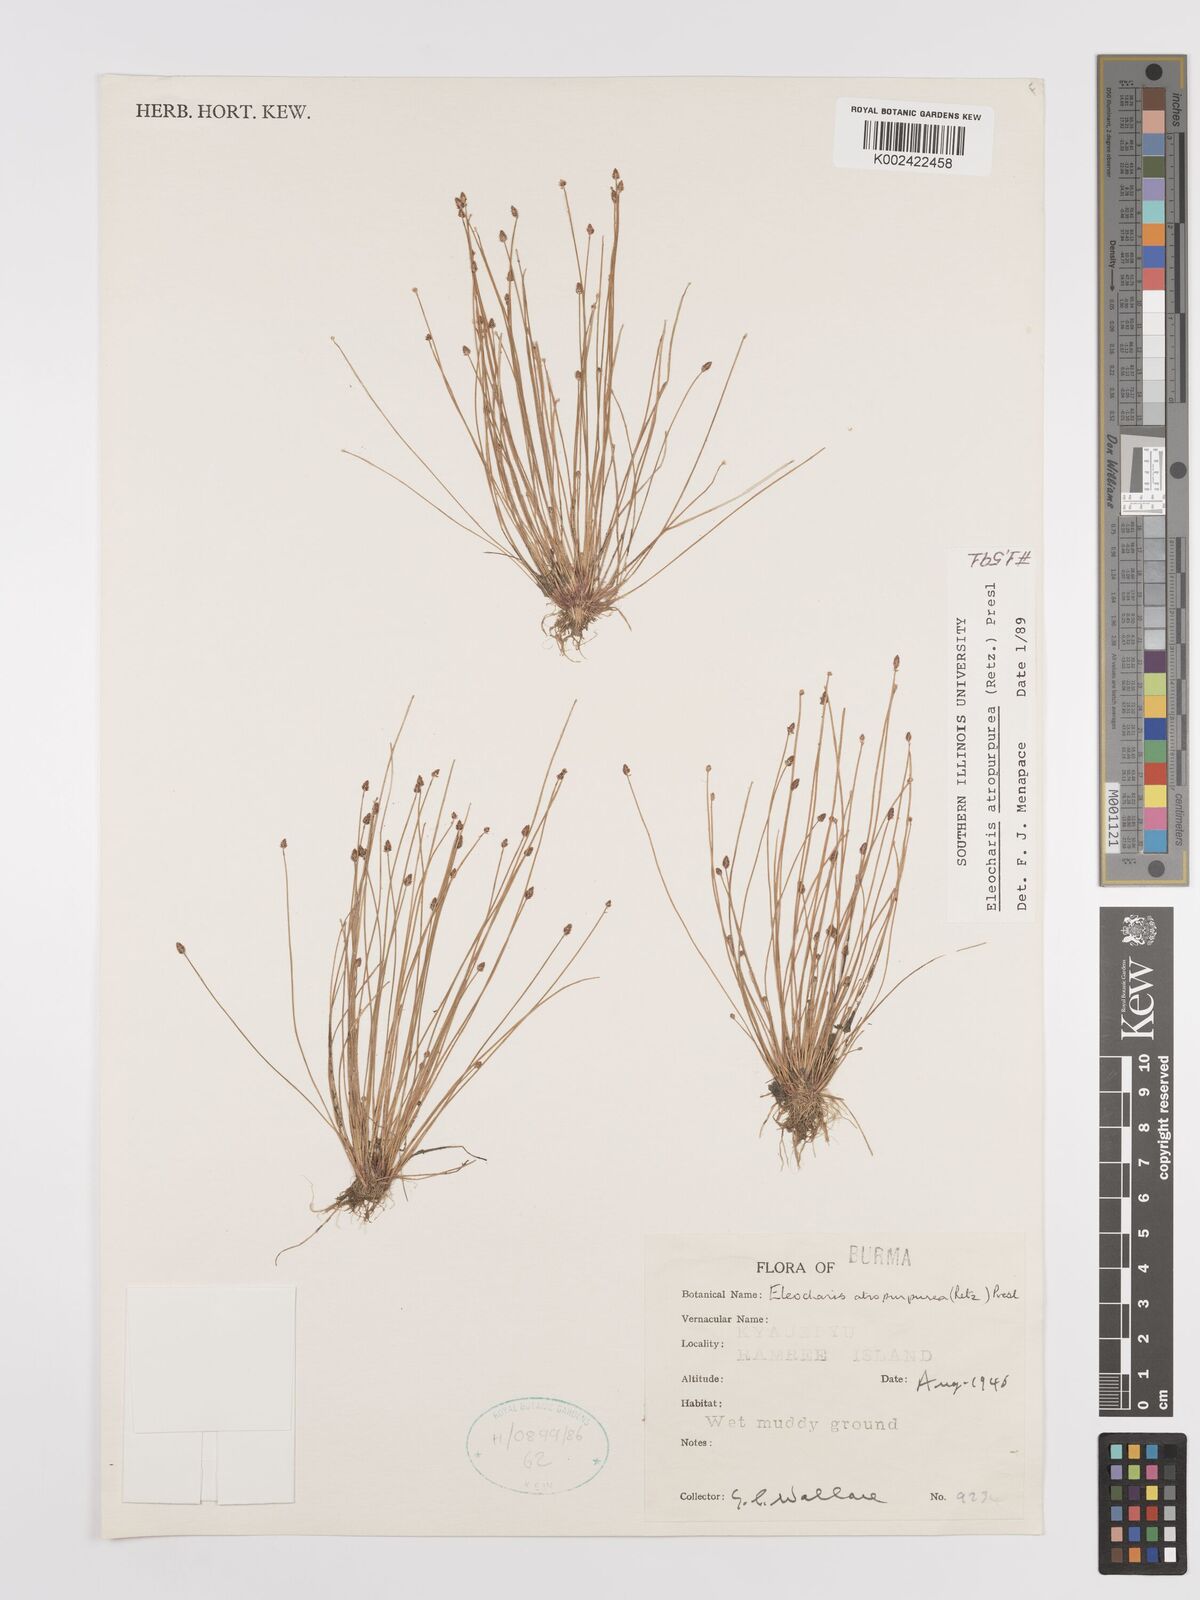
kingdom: Plantae
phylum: Tracheophyta
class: Liliopsida
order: Poales
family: Cyperaceae
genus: Eleocharis
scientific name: Eleocharis atropurpurea
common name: Purple spikerush
